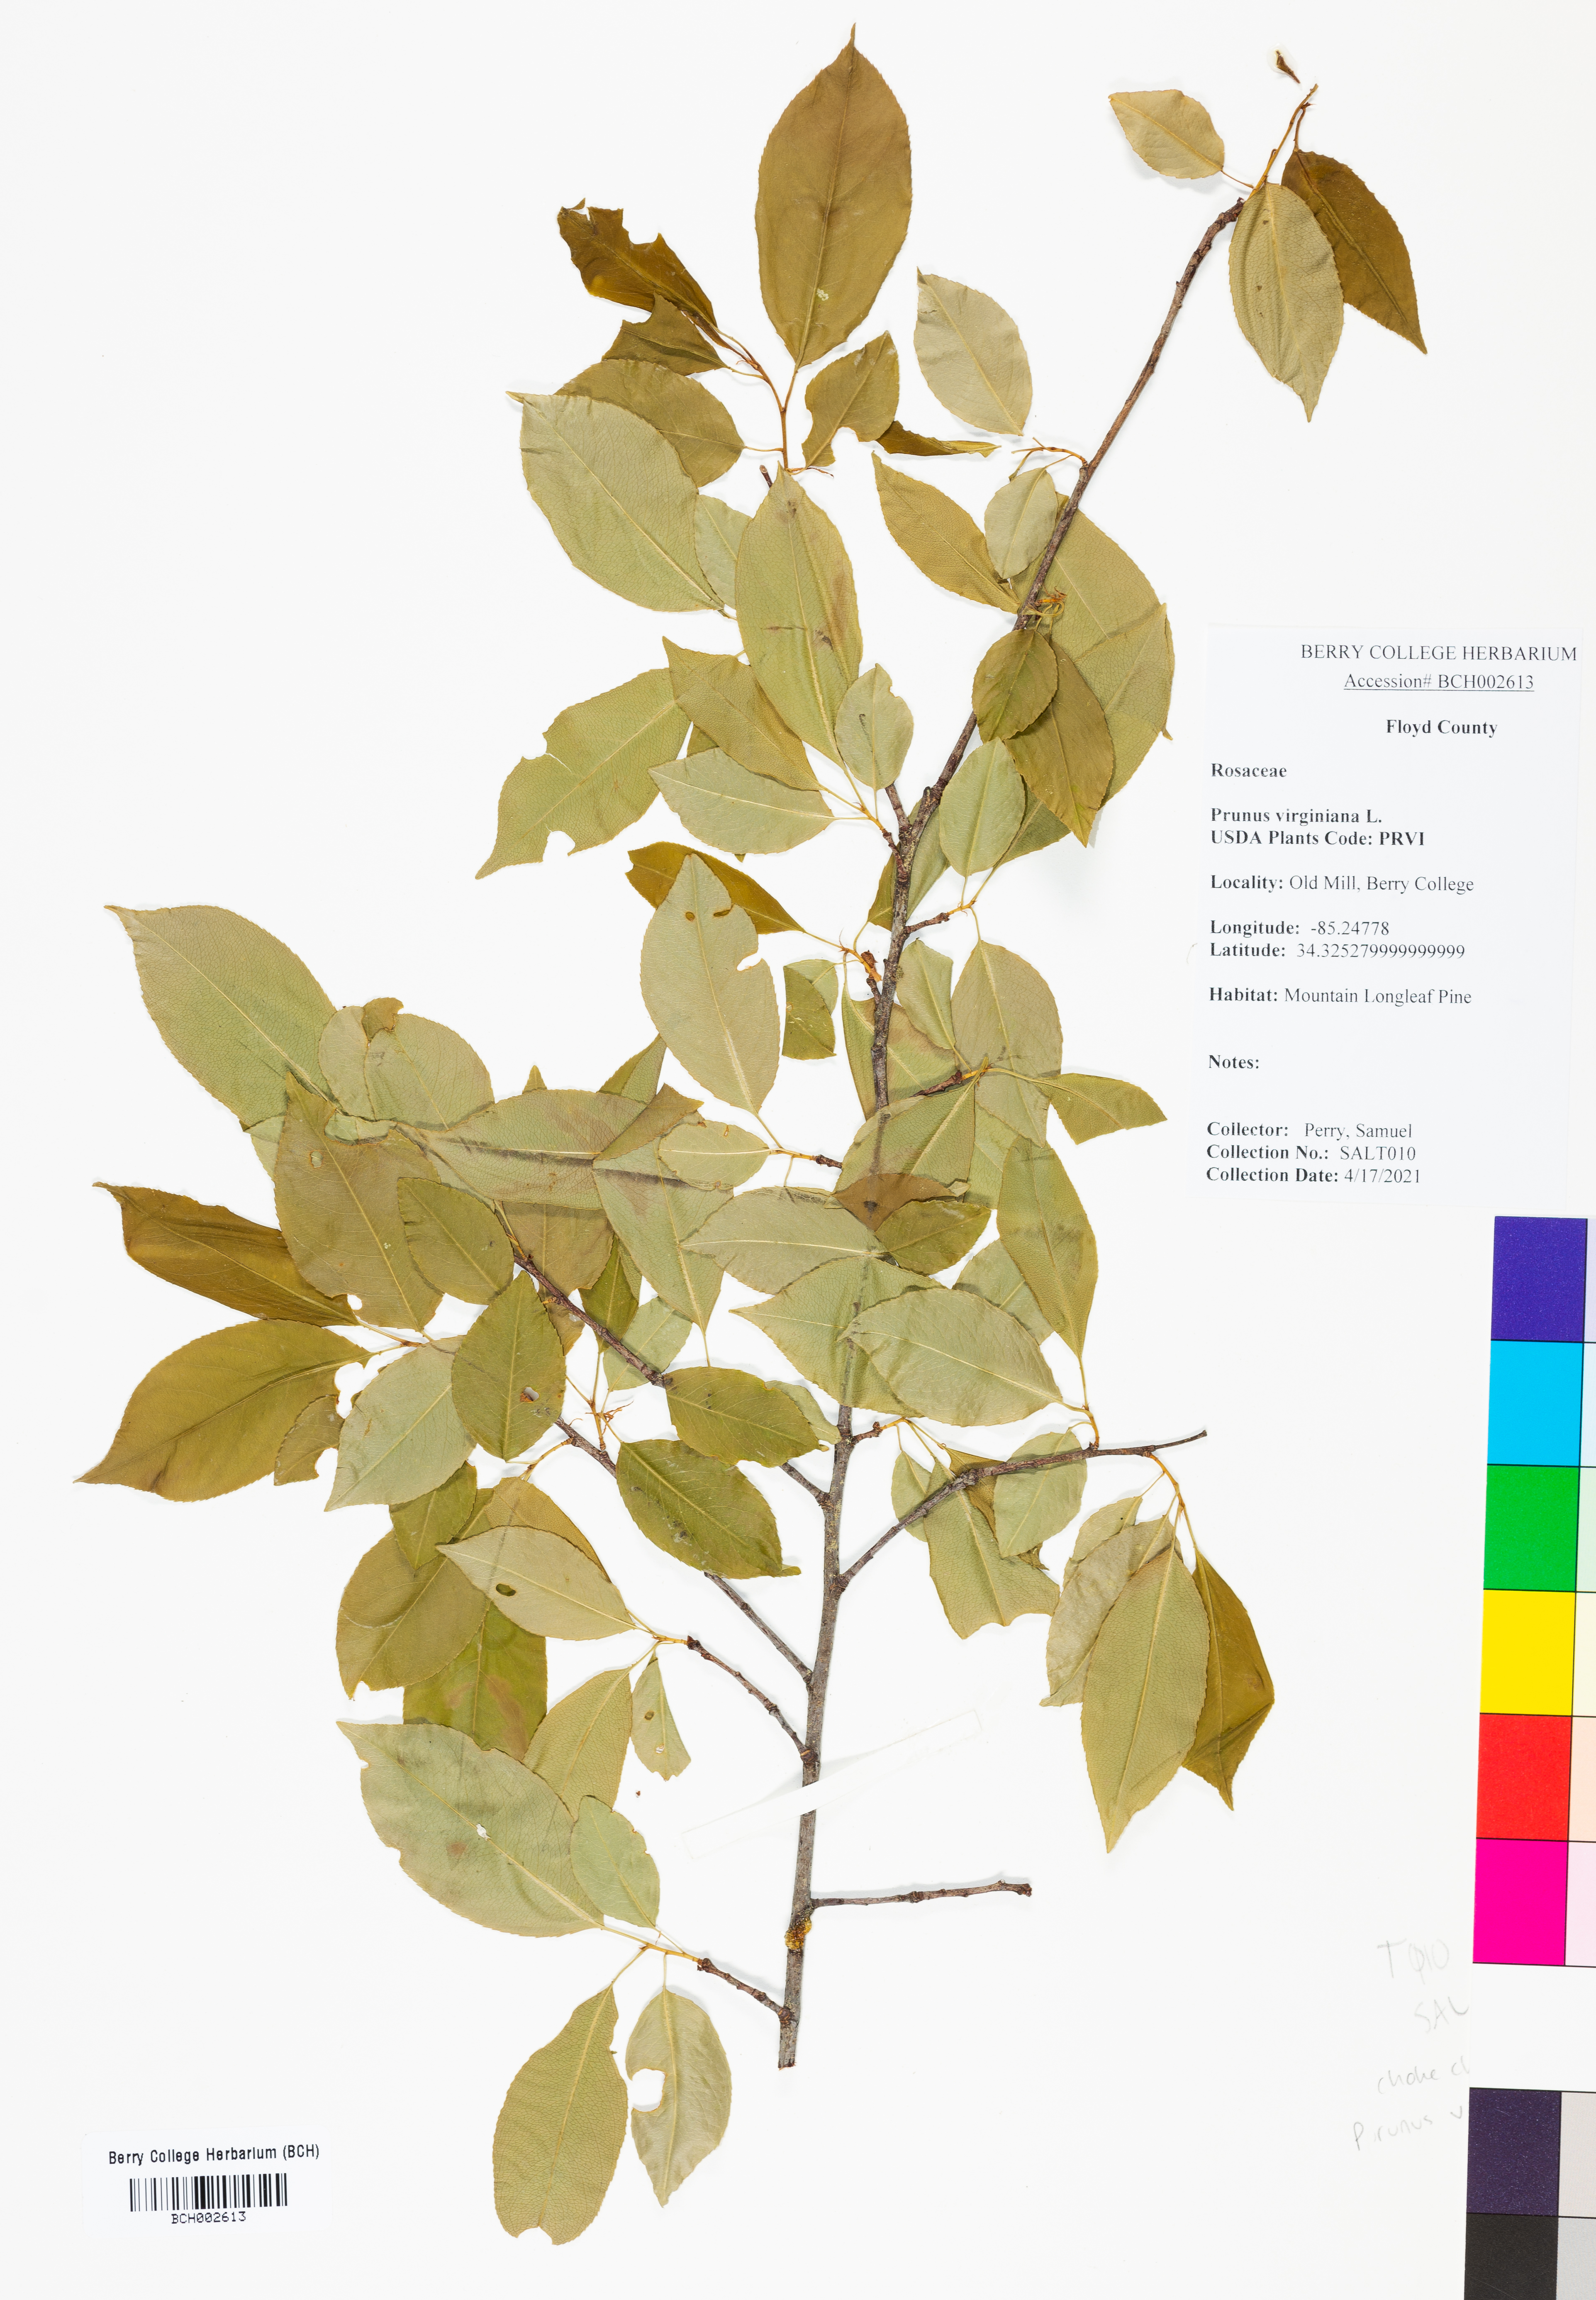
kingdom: Plantae
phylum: Tracheophyta
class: Magnoliopsida
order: Rosales
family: Rosaceae
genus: Prunus
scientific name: Prunus virginiana
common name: Chokecherry
